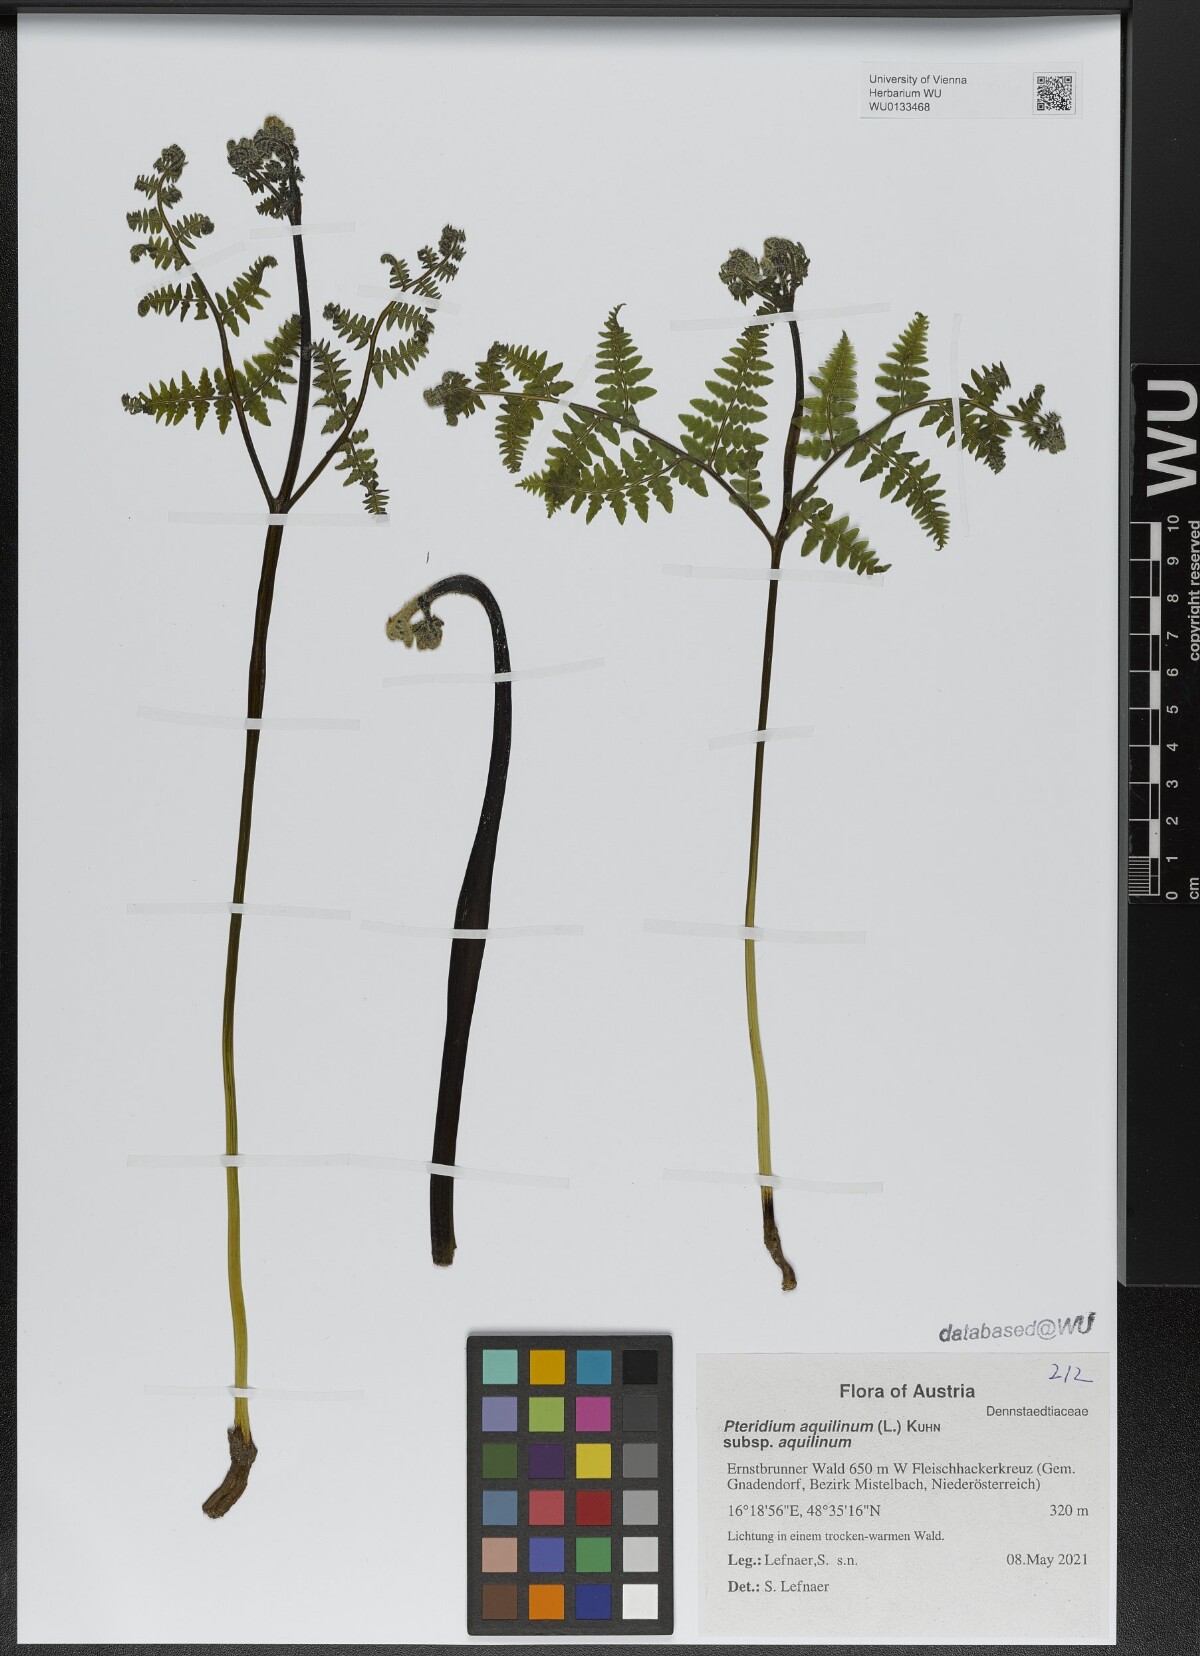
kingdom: Plantae
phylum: Tracheophyta
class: Polypodiopsida
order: Polypodiales
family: Dennstaedtiaceae
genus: Pteridium
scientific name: Pteridium aquilinum
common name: Bracken
